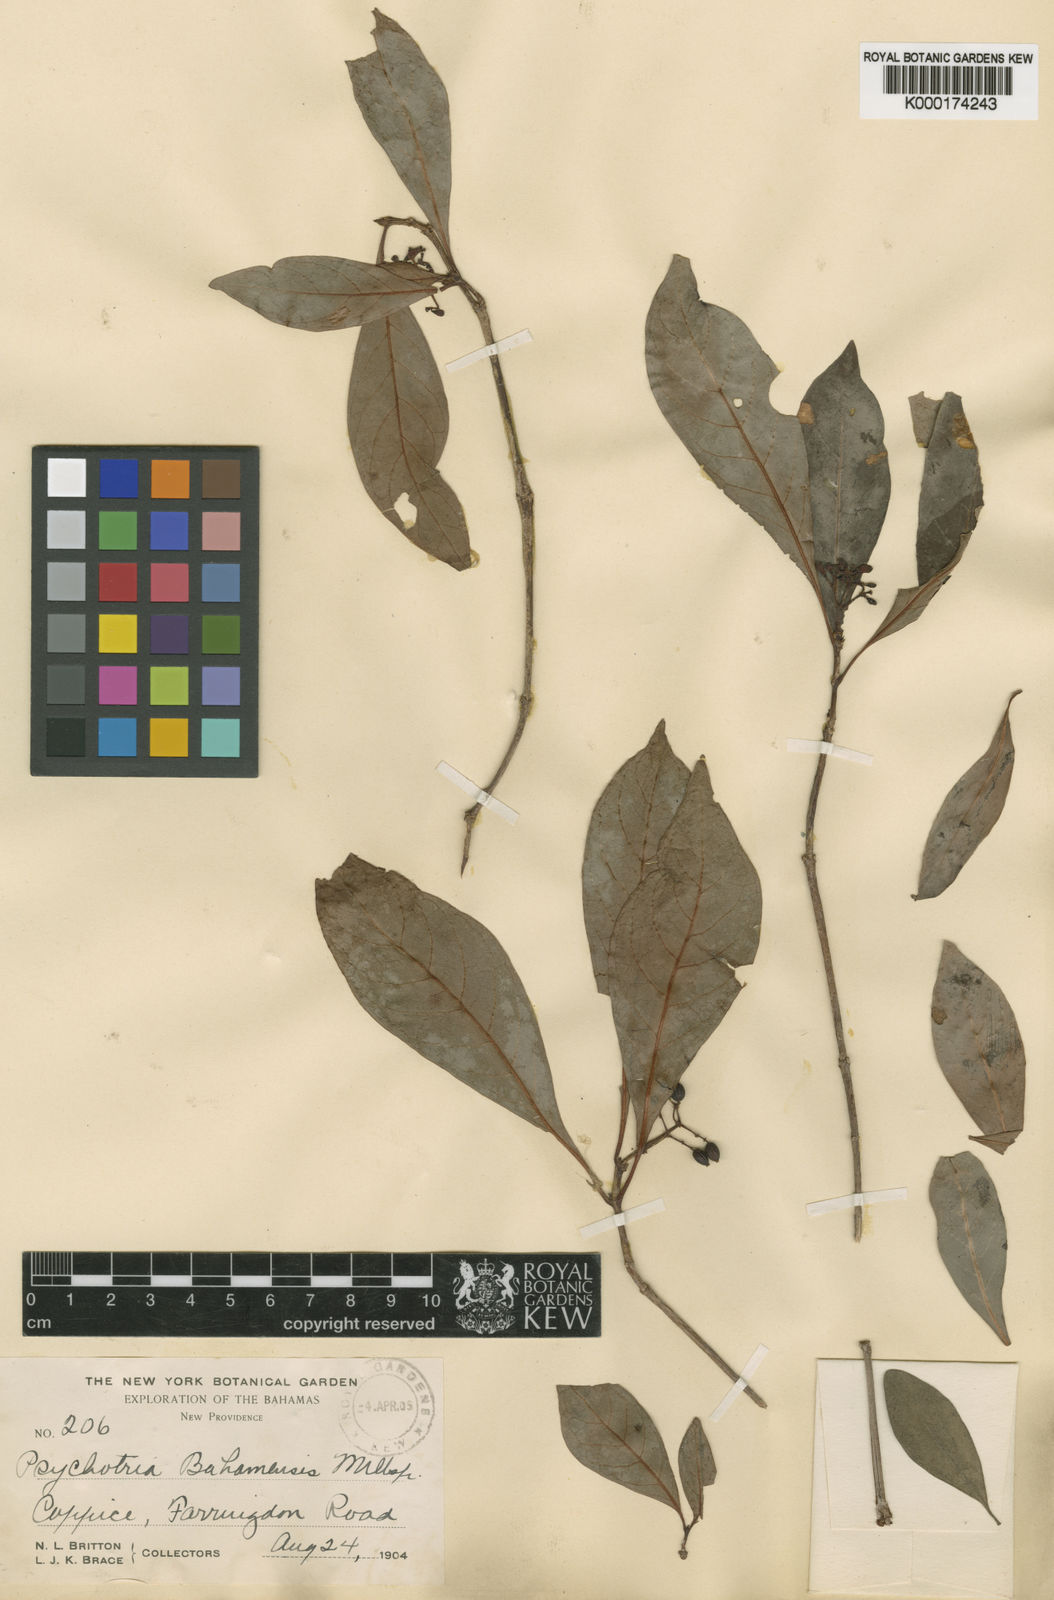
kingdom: Plantae
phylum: Tracheophyta
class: Magnoliopsida
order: Gentianales
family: Rubiaceae
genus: Psychotria
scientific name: Psychotria
